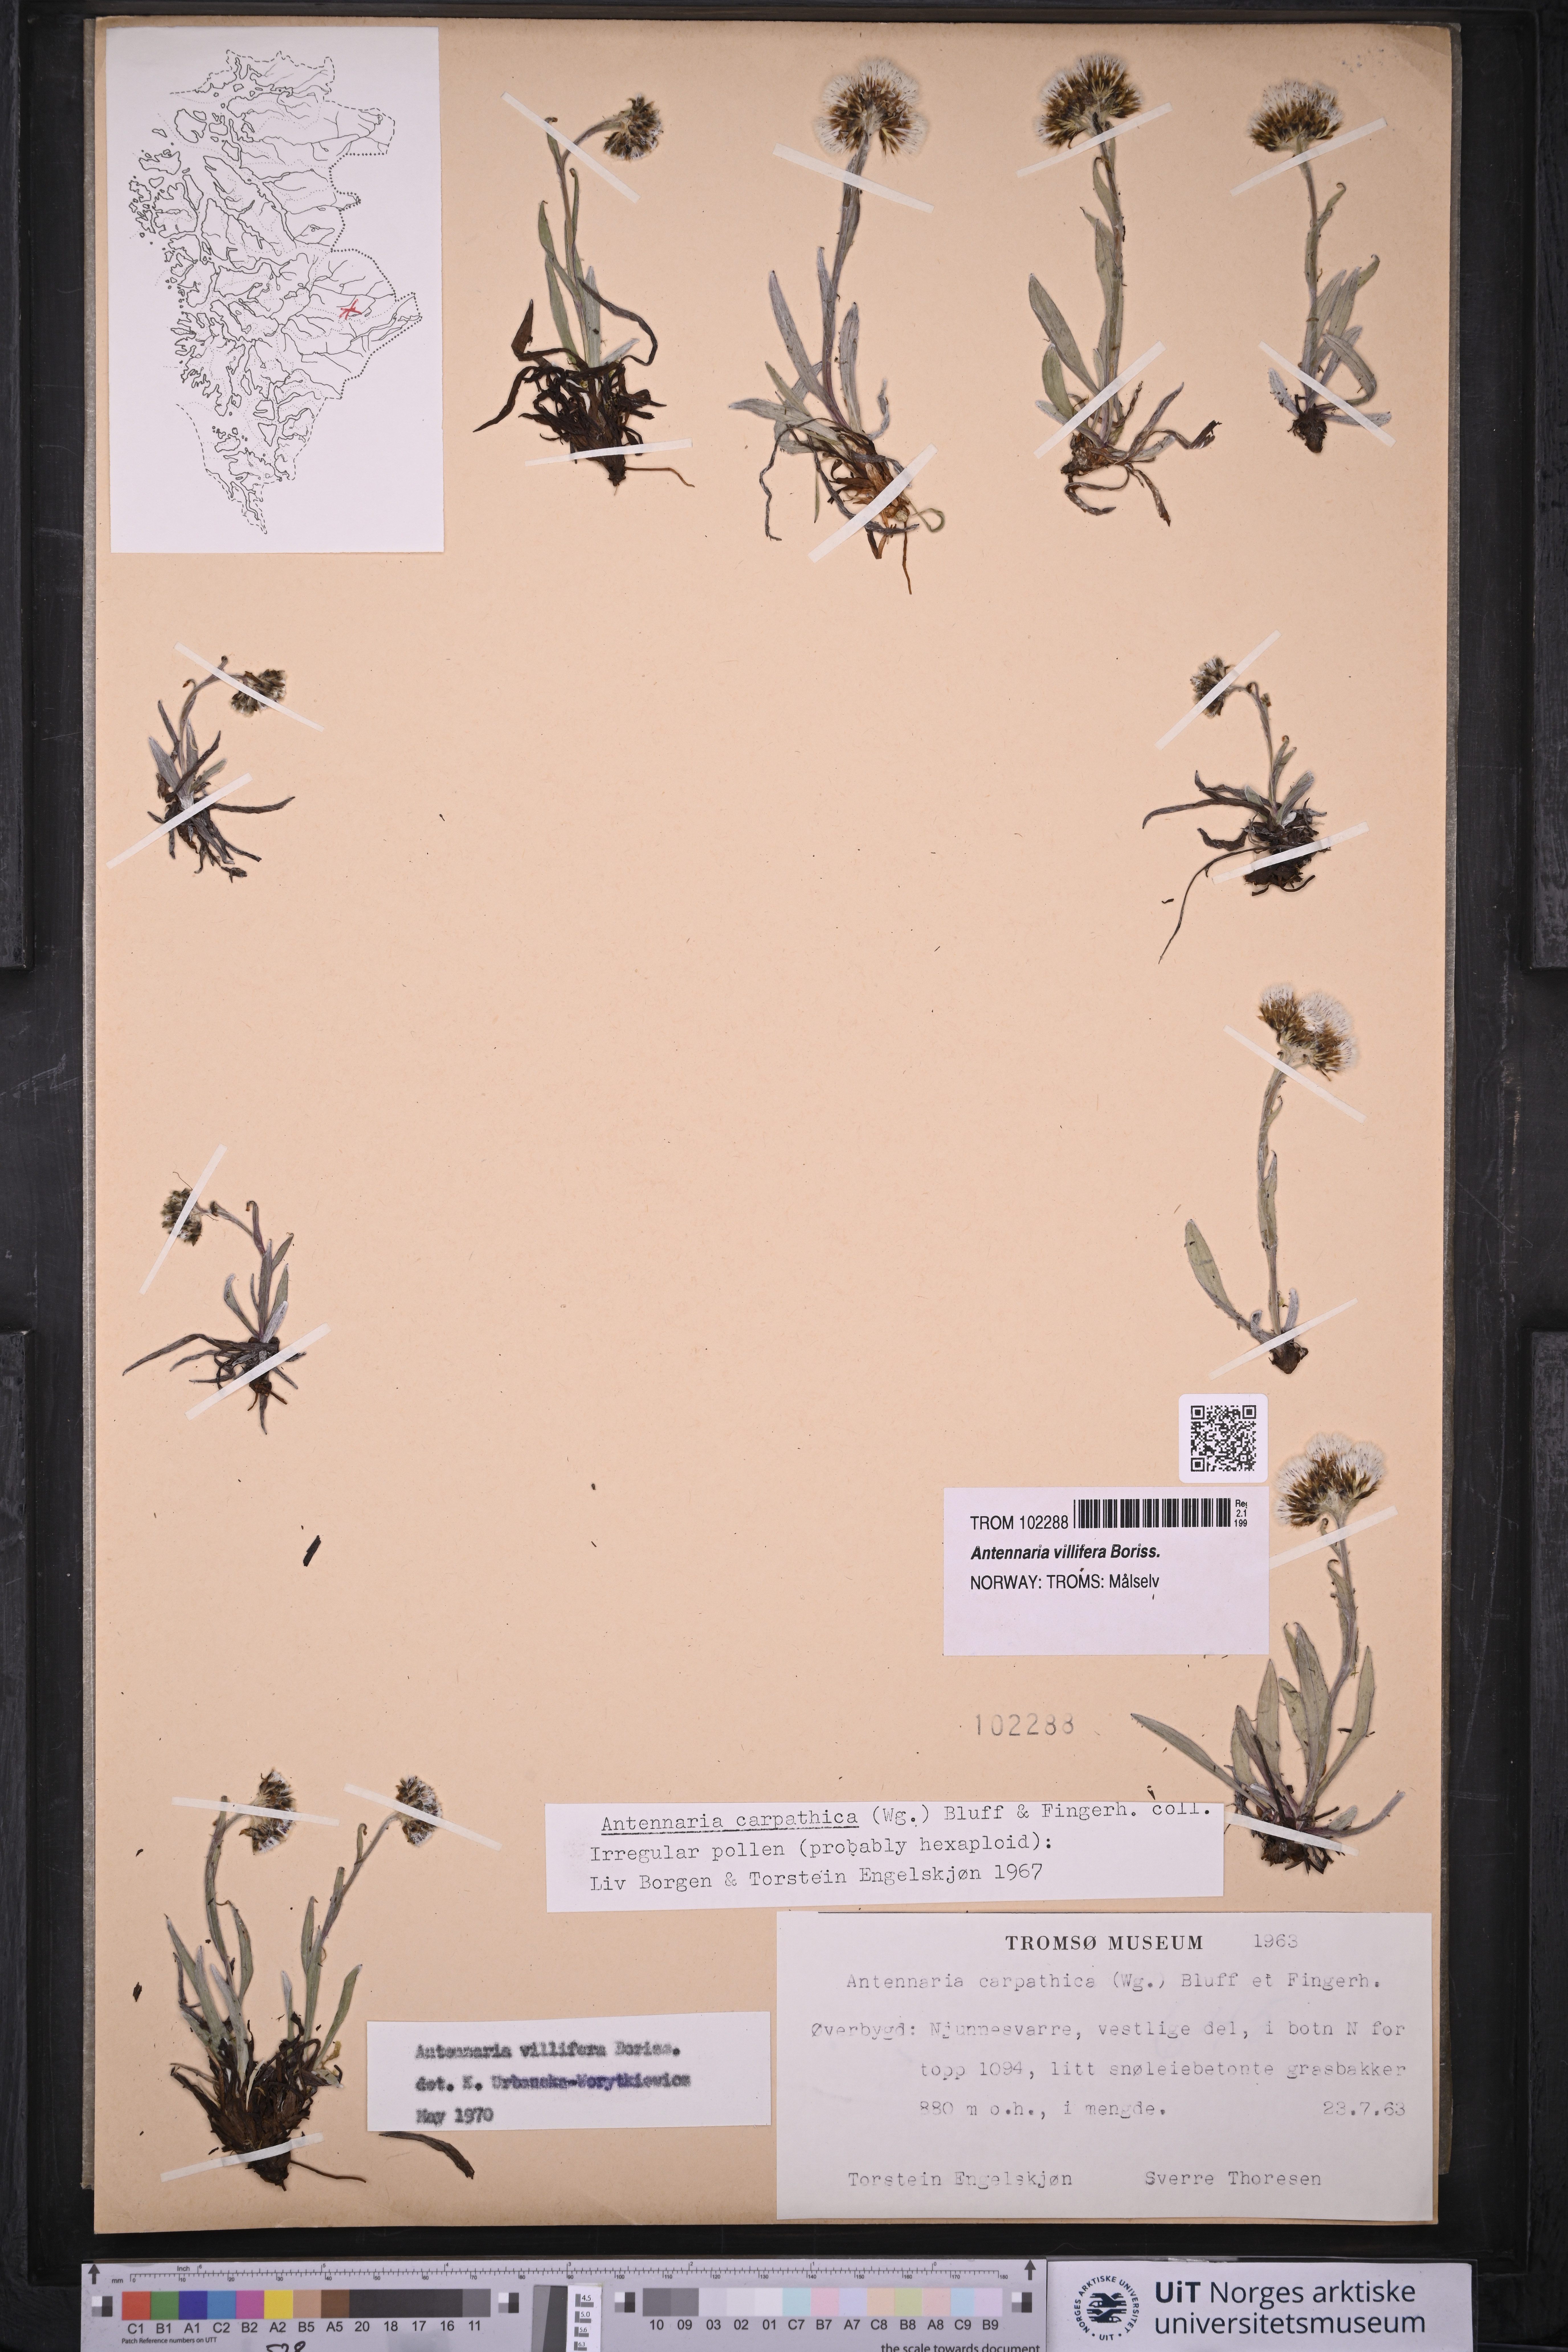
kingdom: Plantae
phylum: Tracheophyta
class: Magnoliopsida
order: Asterales
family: Asteraceae
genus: Antennaria
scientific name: Antennaria lanata
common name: Woolly pussytoes
